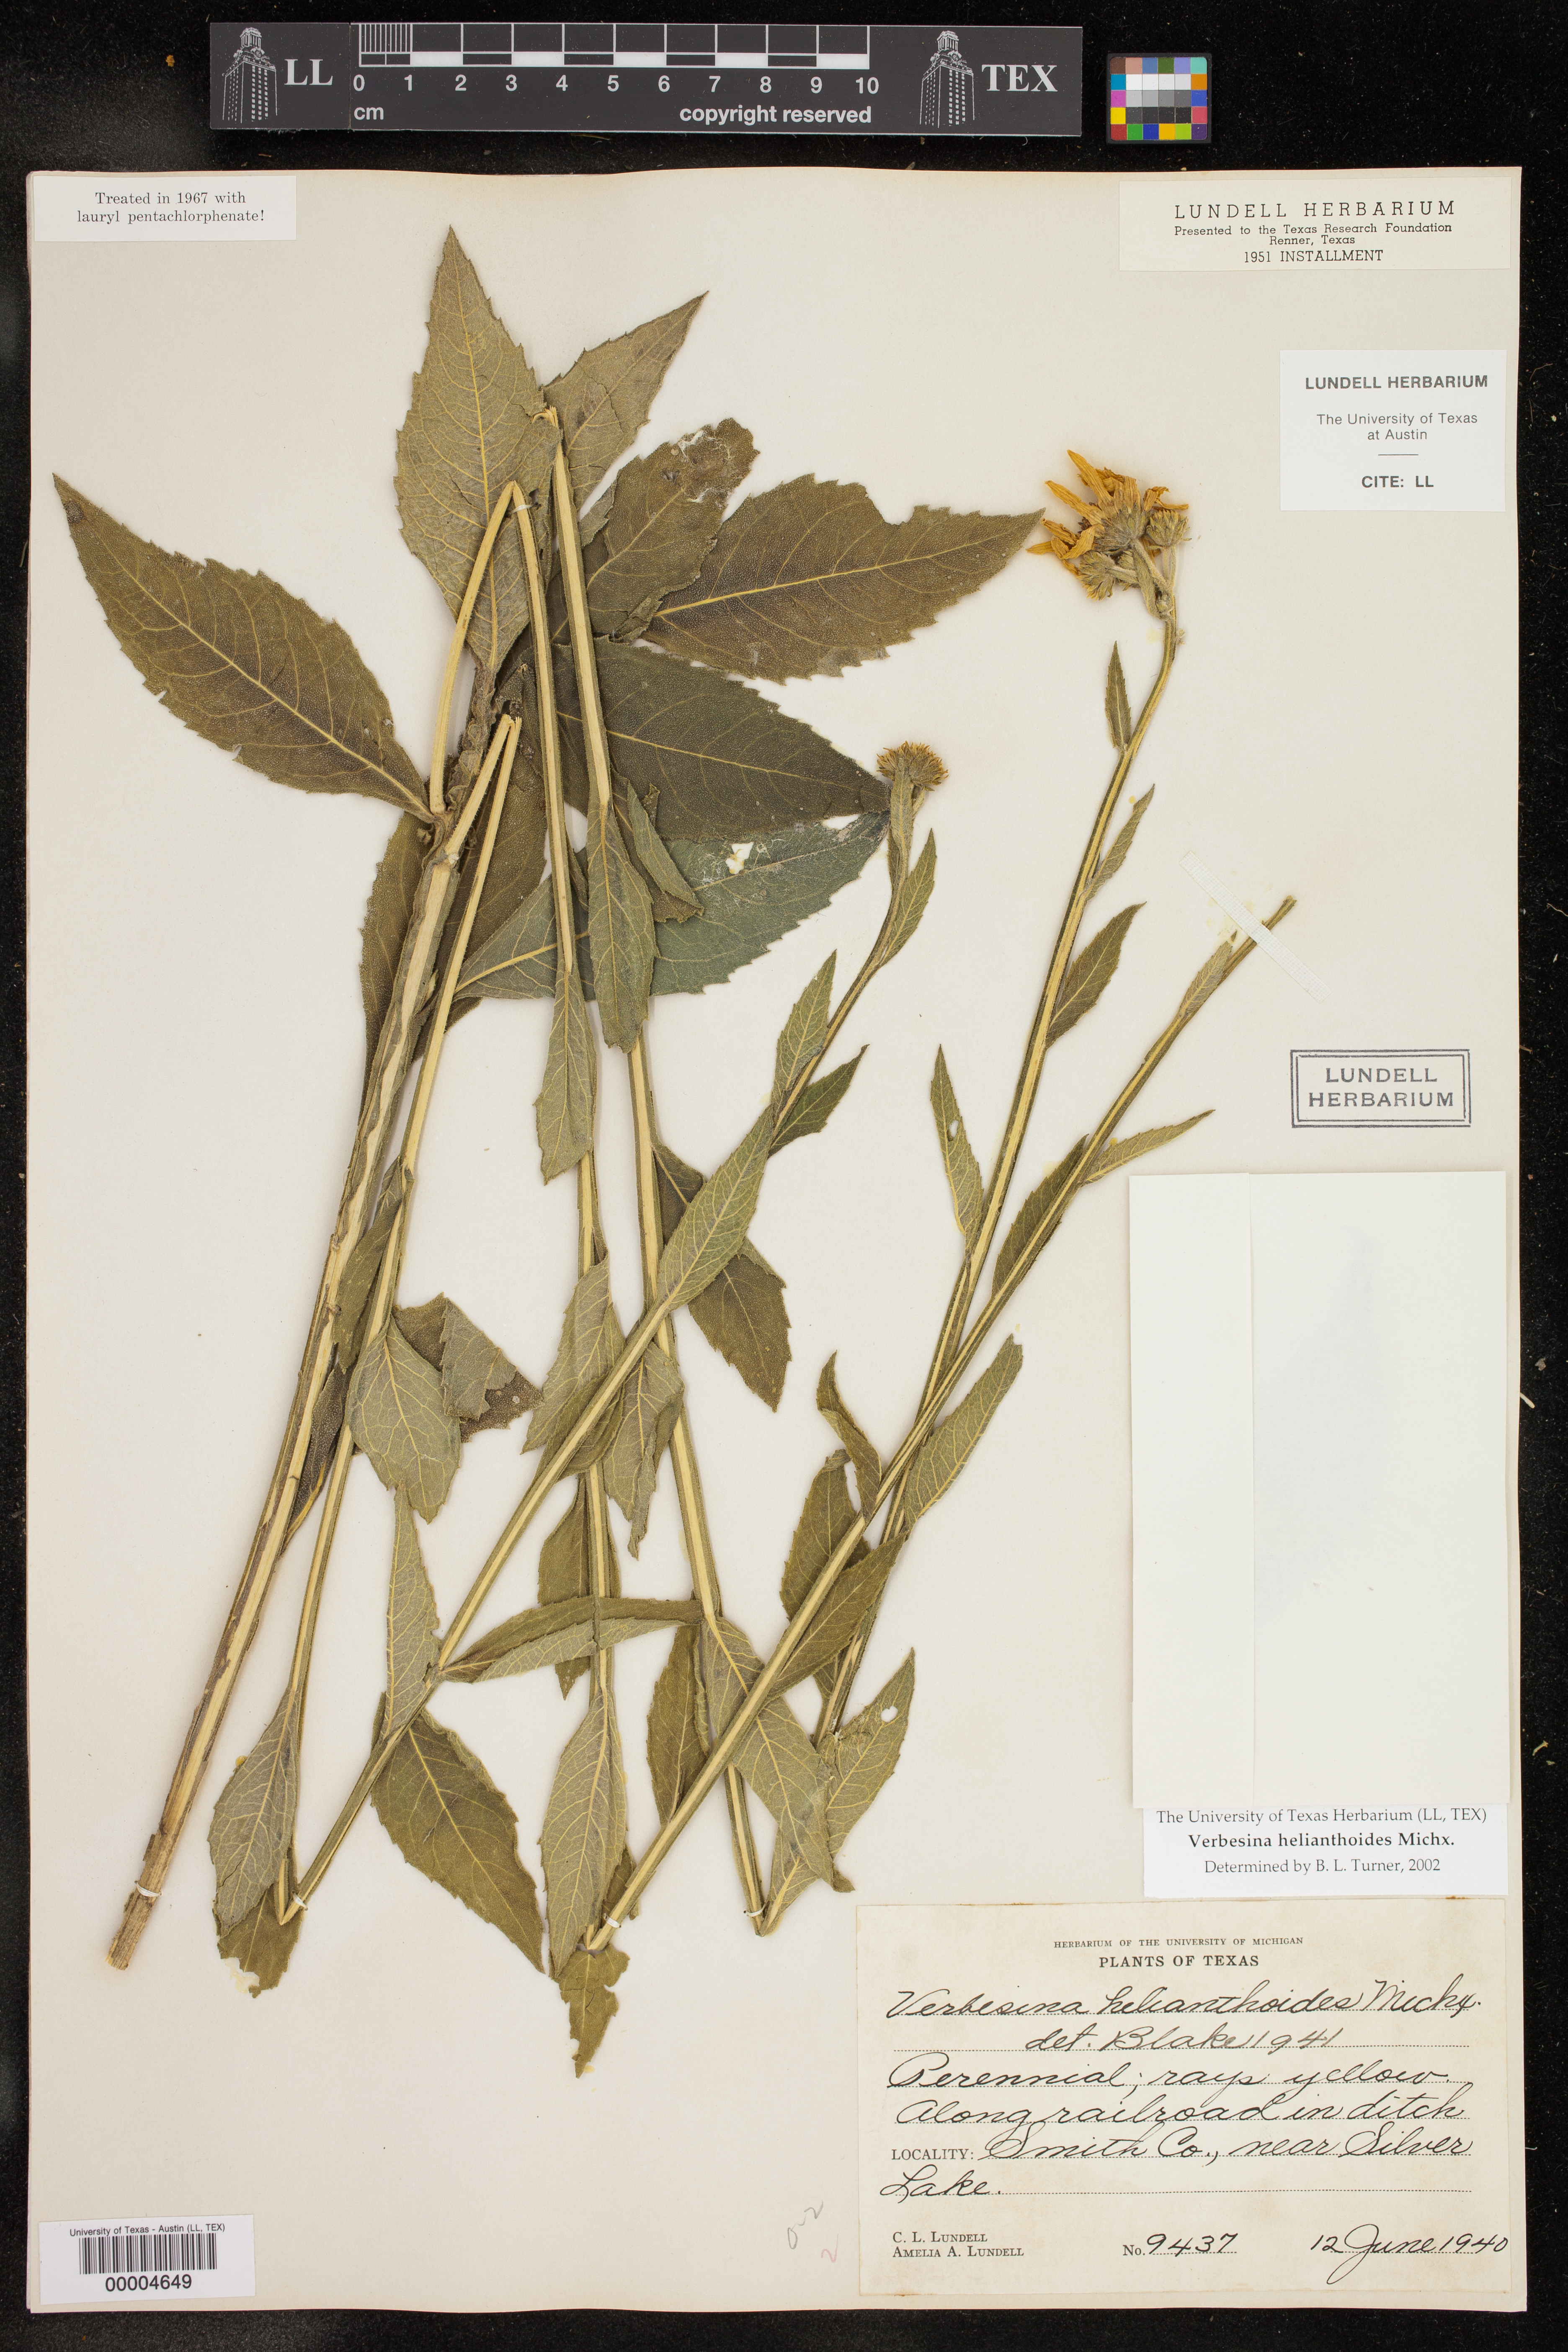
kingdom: Plantae
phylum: Tracheophyta
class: Magnoliopsida
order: Asterales
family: Asteraceae
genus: Verbesina
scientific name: Verbesina helianthoides
